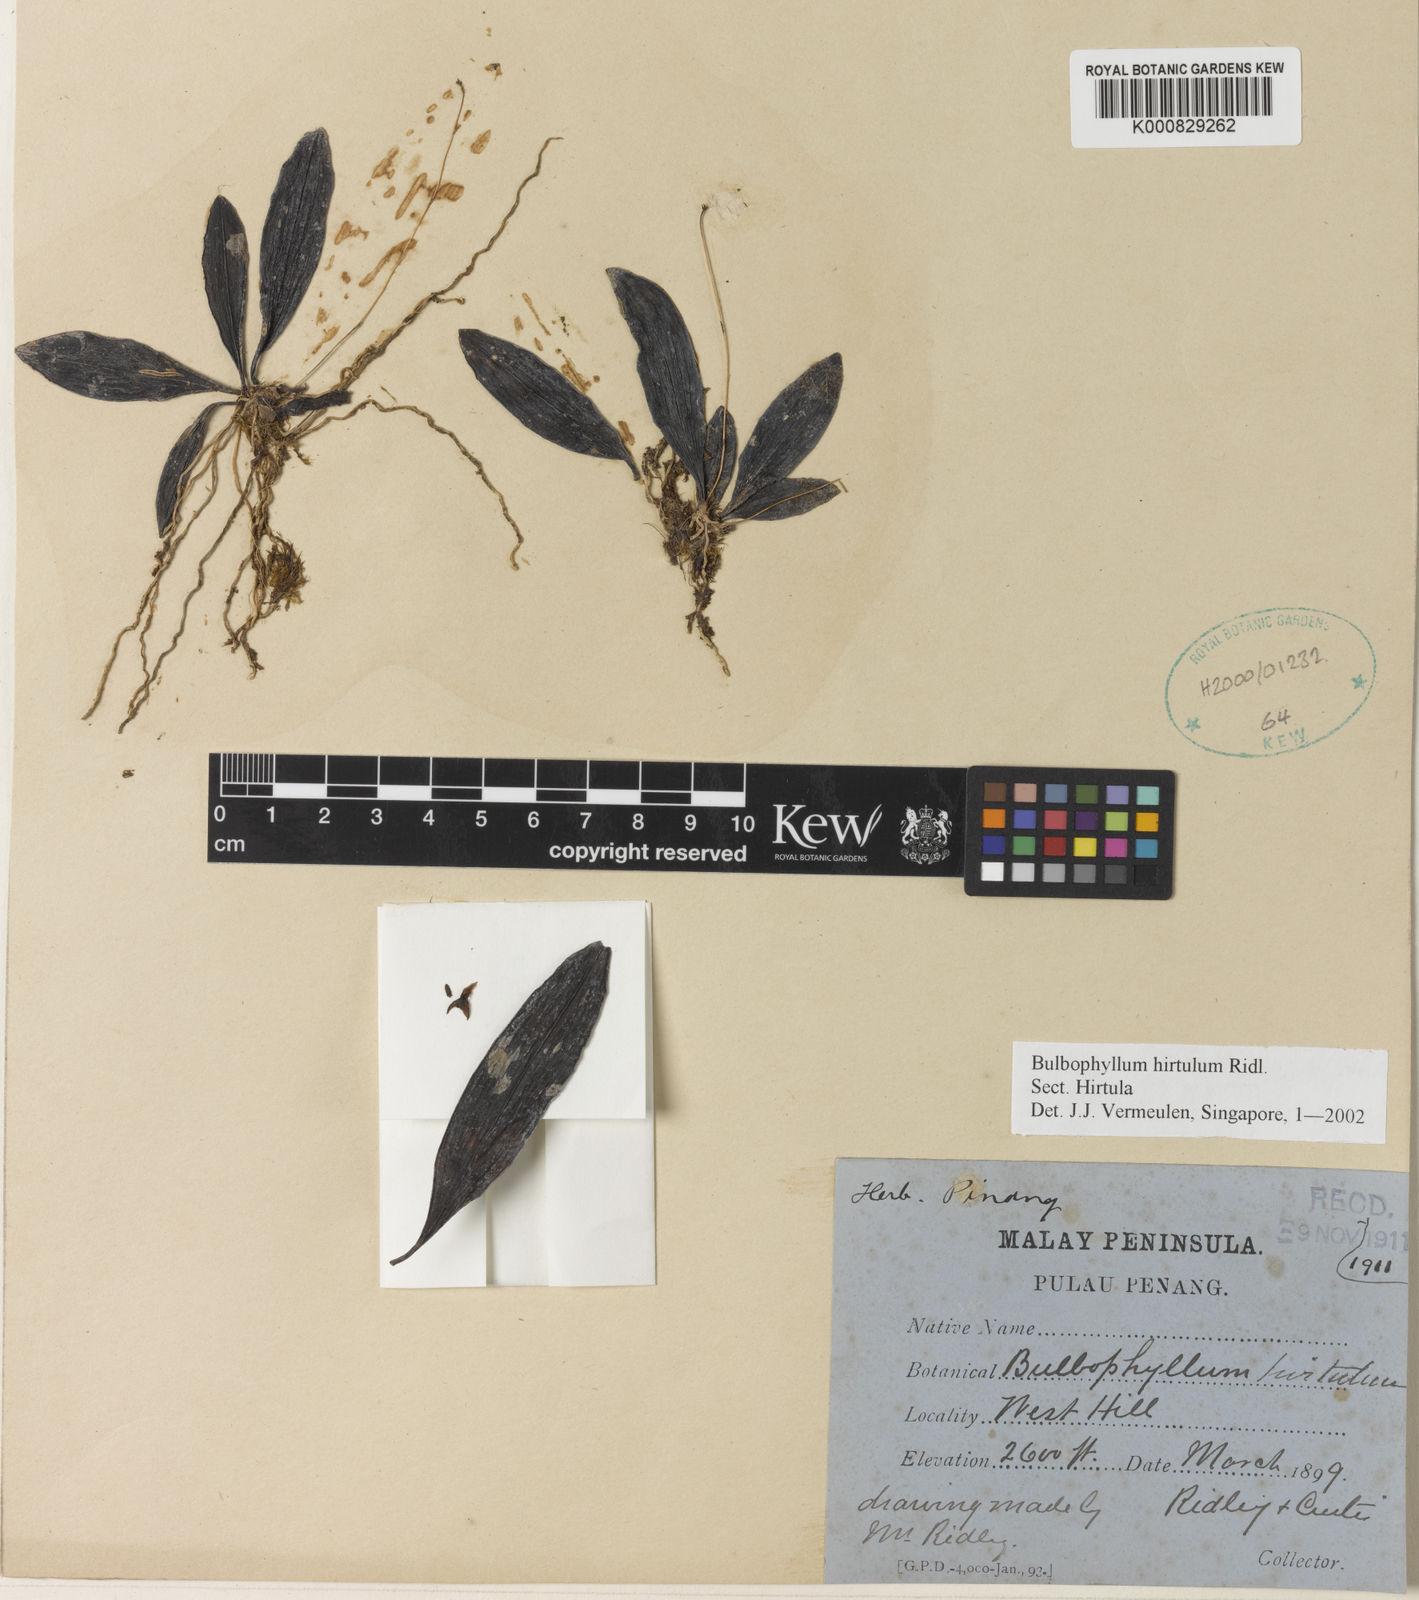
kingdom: Plantae
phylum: Tracheophyta
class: Liliopsida
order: Asparagales
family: Orchidaceae
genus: Bulbophyllum
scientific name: Bulbophyllum hirtulum
